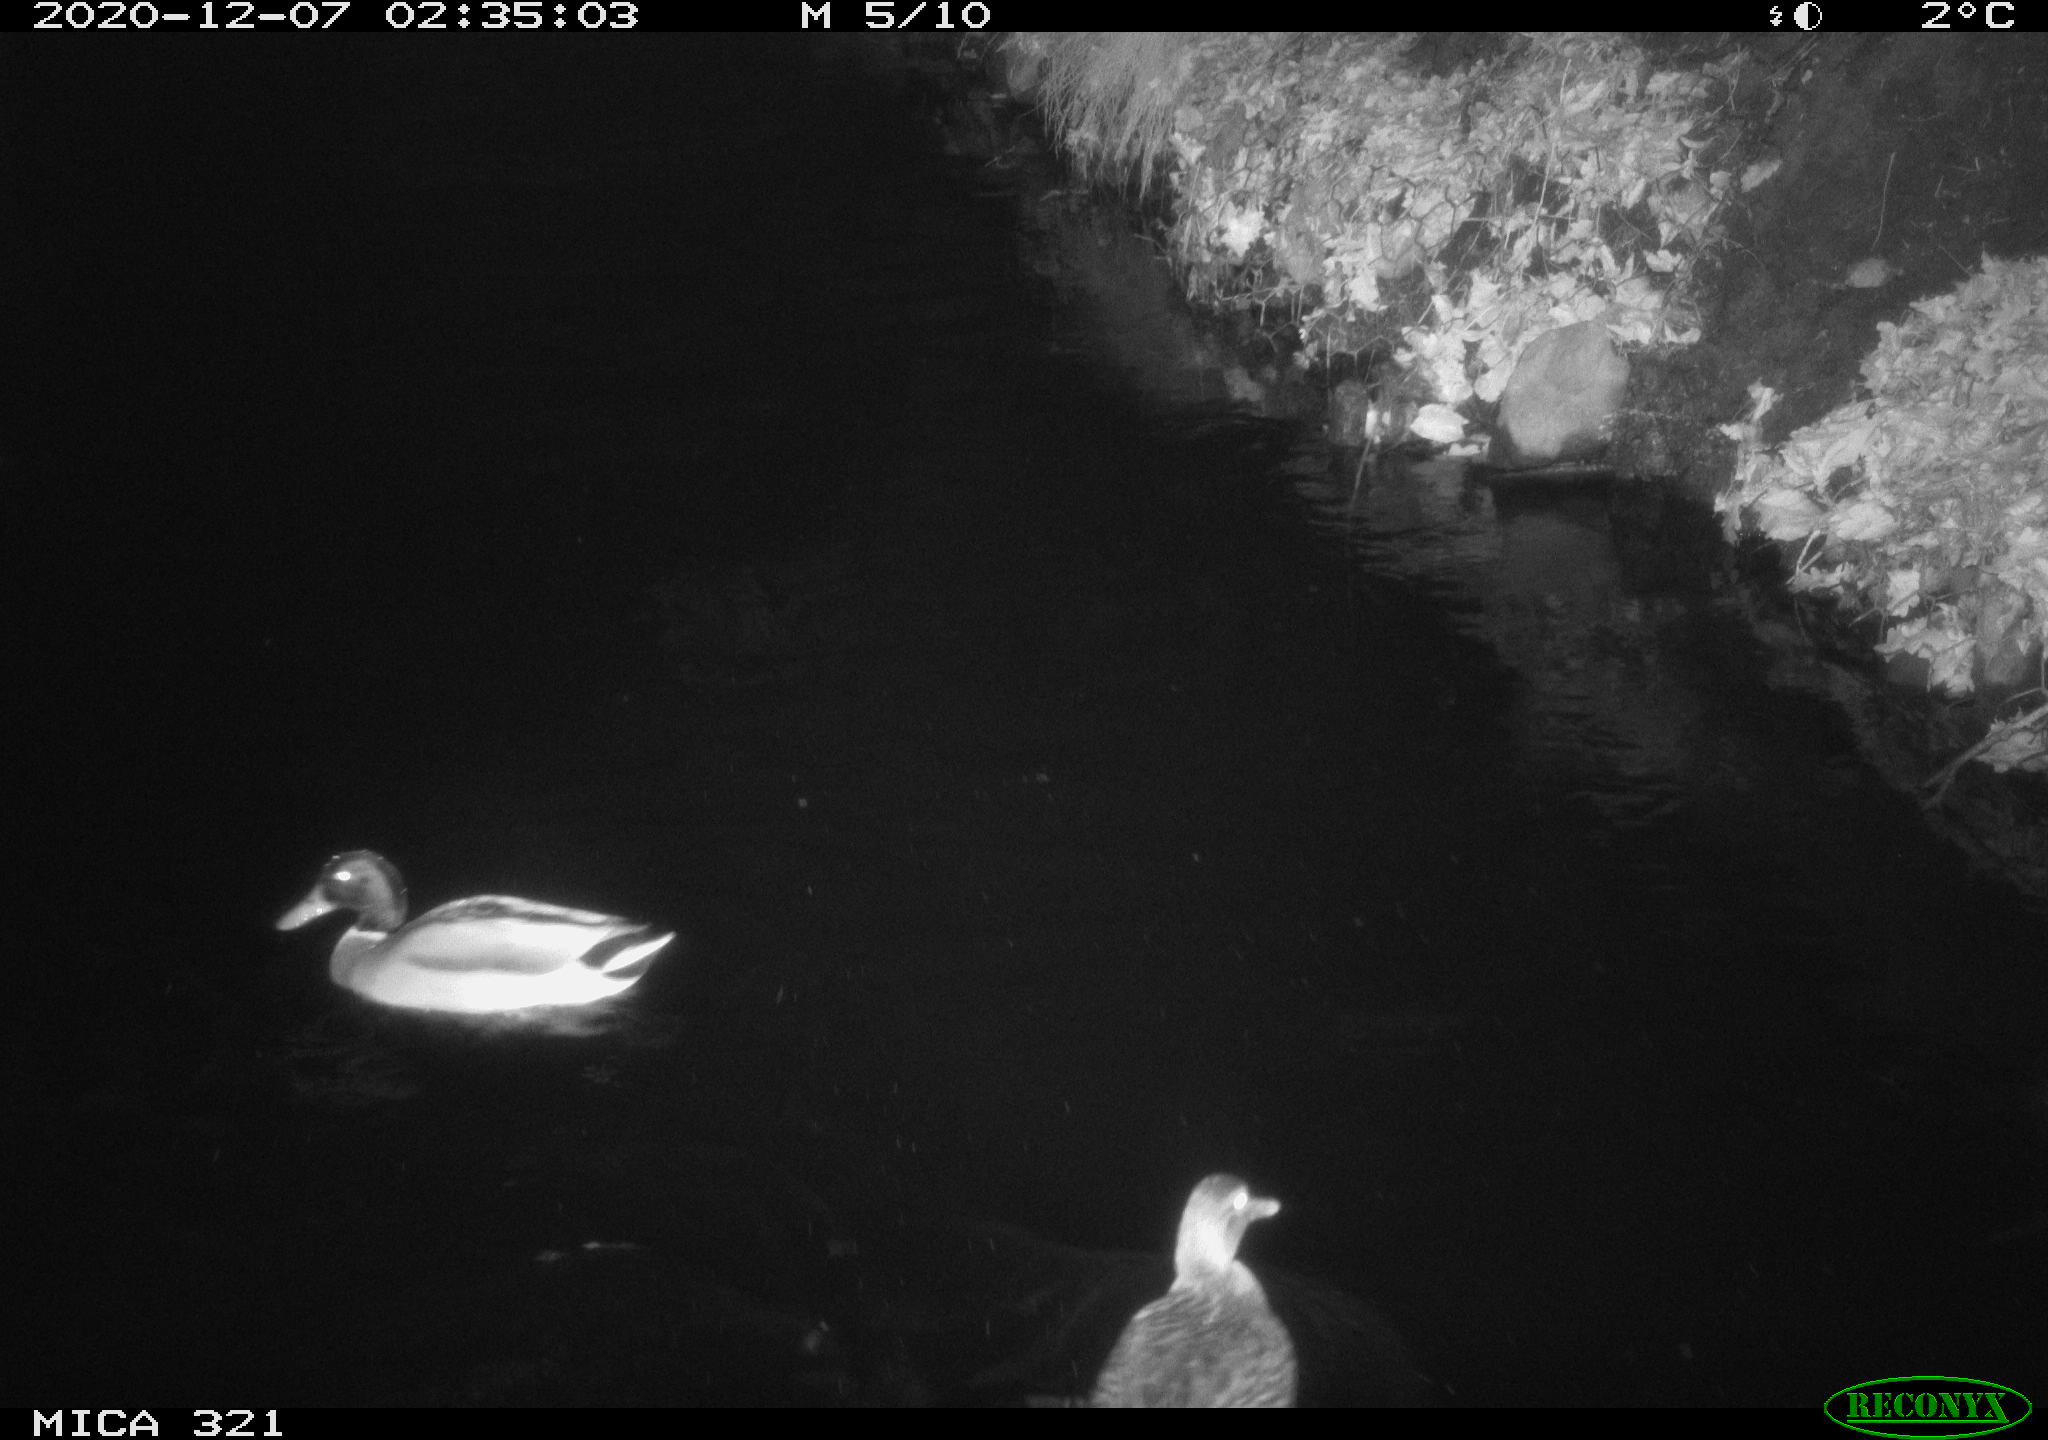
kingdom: Animalia
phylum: Chordata
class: Aves
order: Anseriformes
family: Anatidae
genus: Anas
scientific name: Anas platyrhynchos
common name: Mallard
